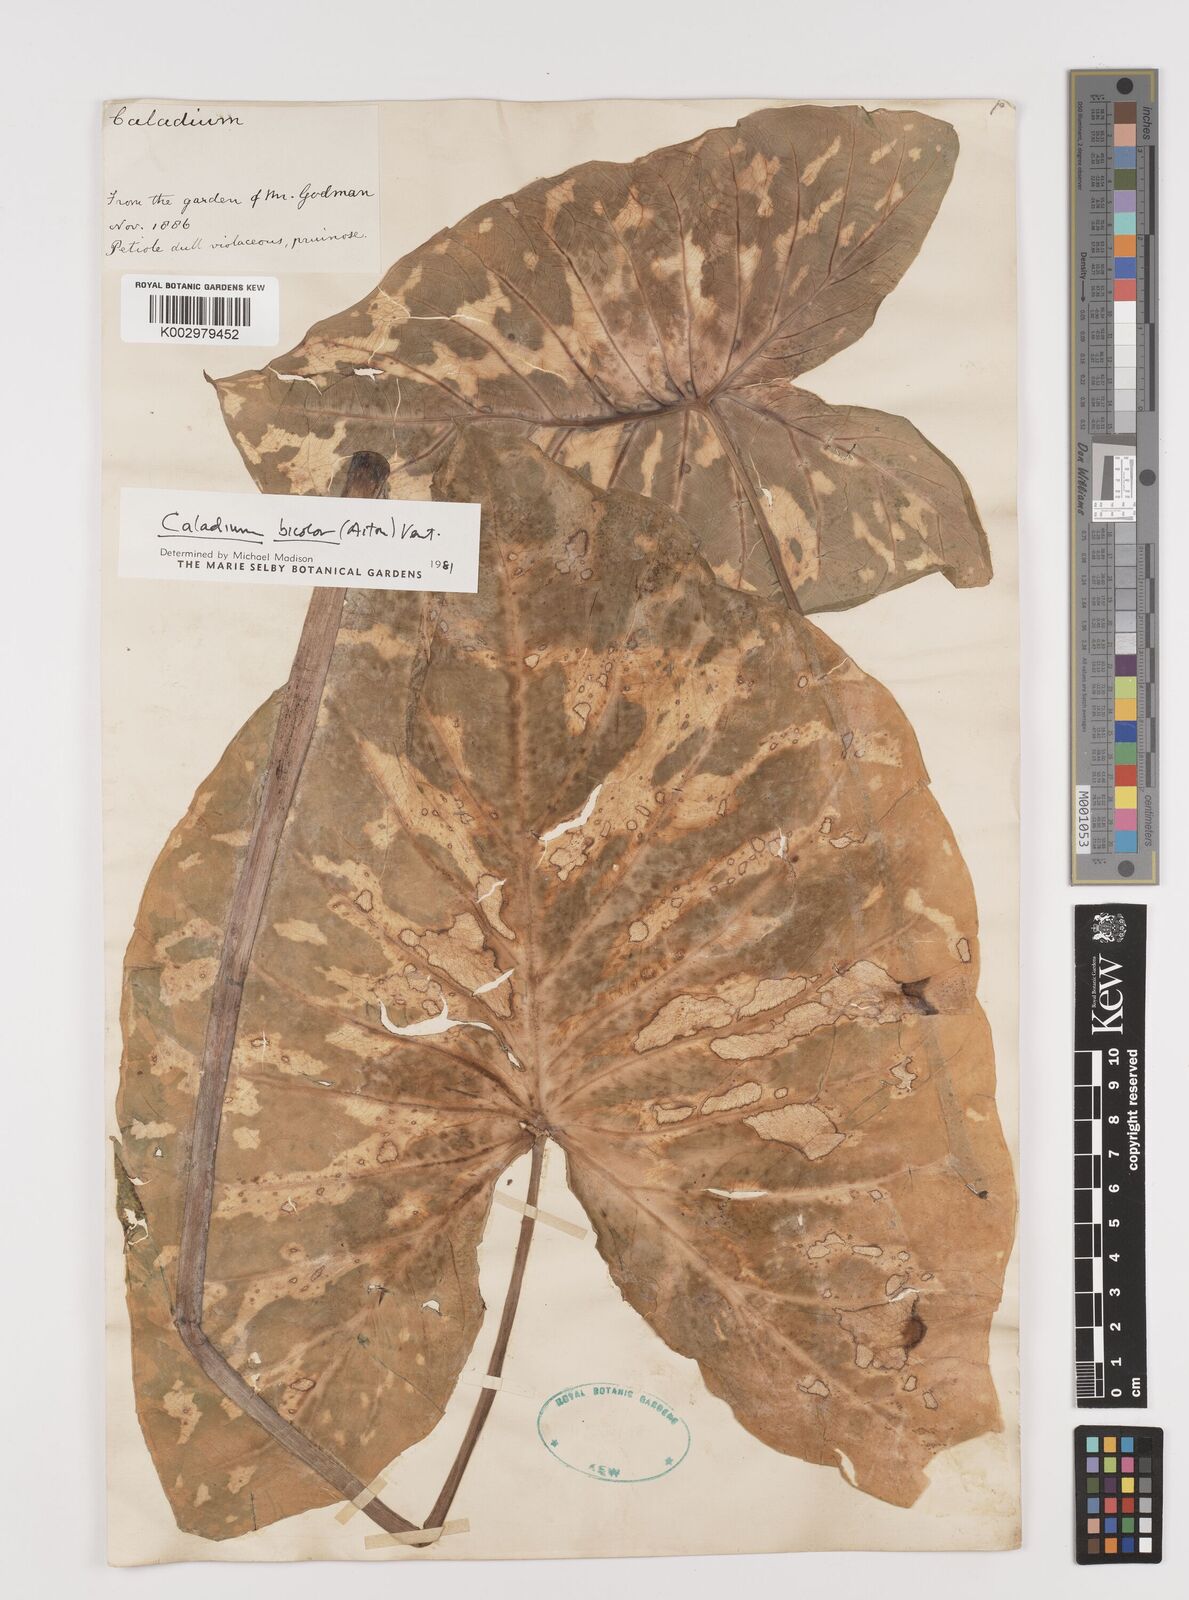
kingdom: Plantae
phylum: Tracheophyta
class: Liliopsida
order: Alismatales
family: Araceae
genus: Caladium
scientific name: Caladium bicolor
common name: Artist's pallet
